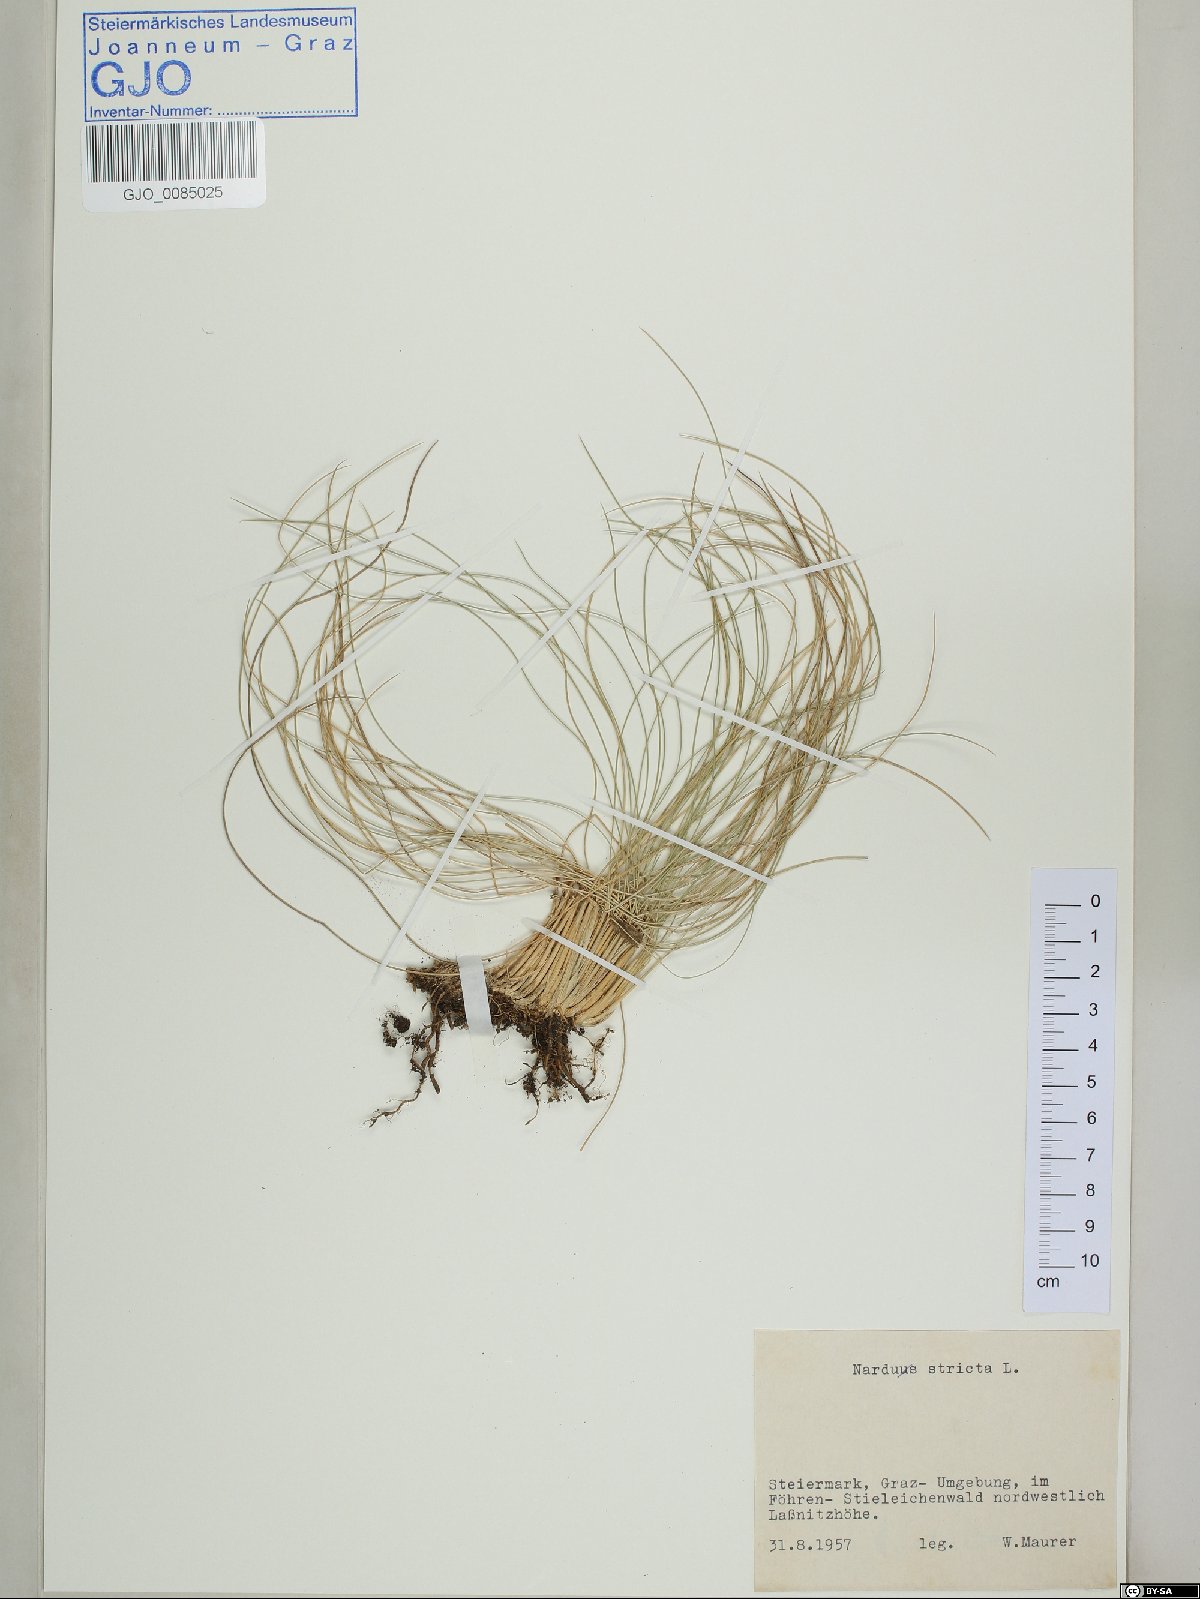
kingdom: Plantae
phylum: Tracheophyta
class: Liliopsida
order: Poales
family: Poaceae
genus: Nardus
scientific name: Nardus stricta
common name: Mat-grass
